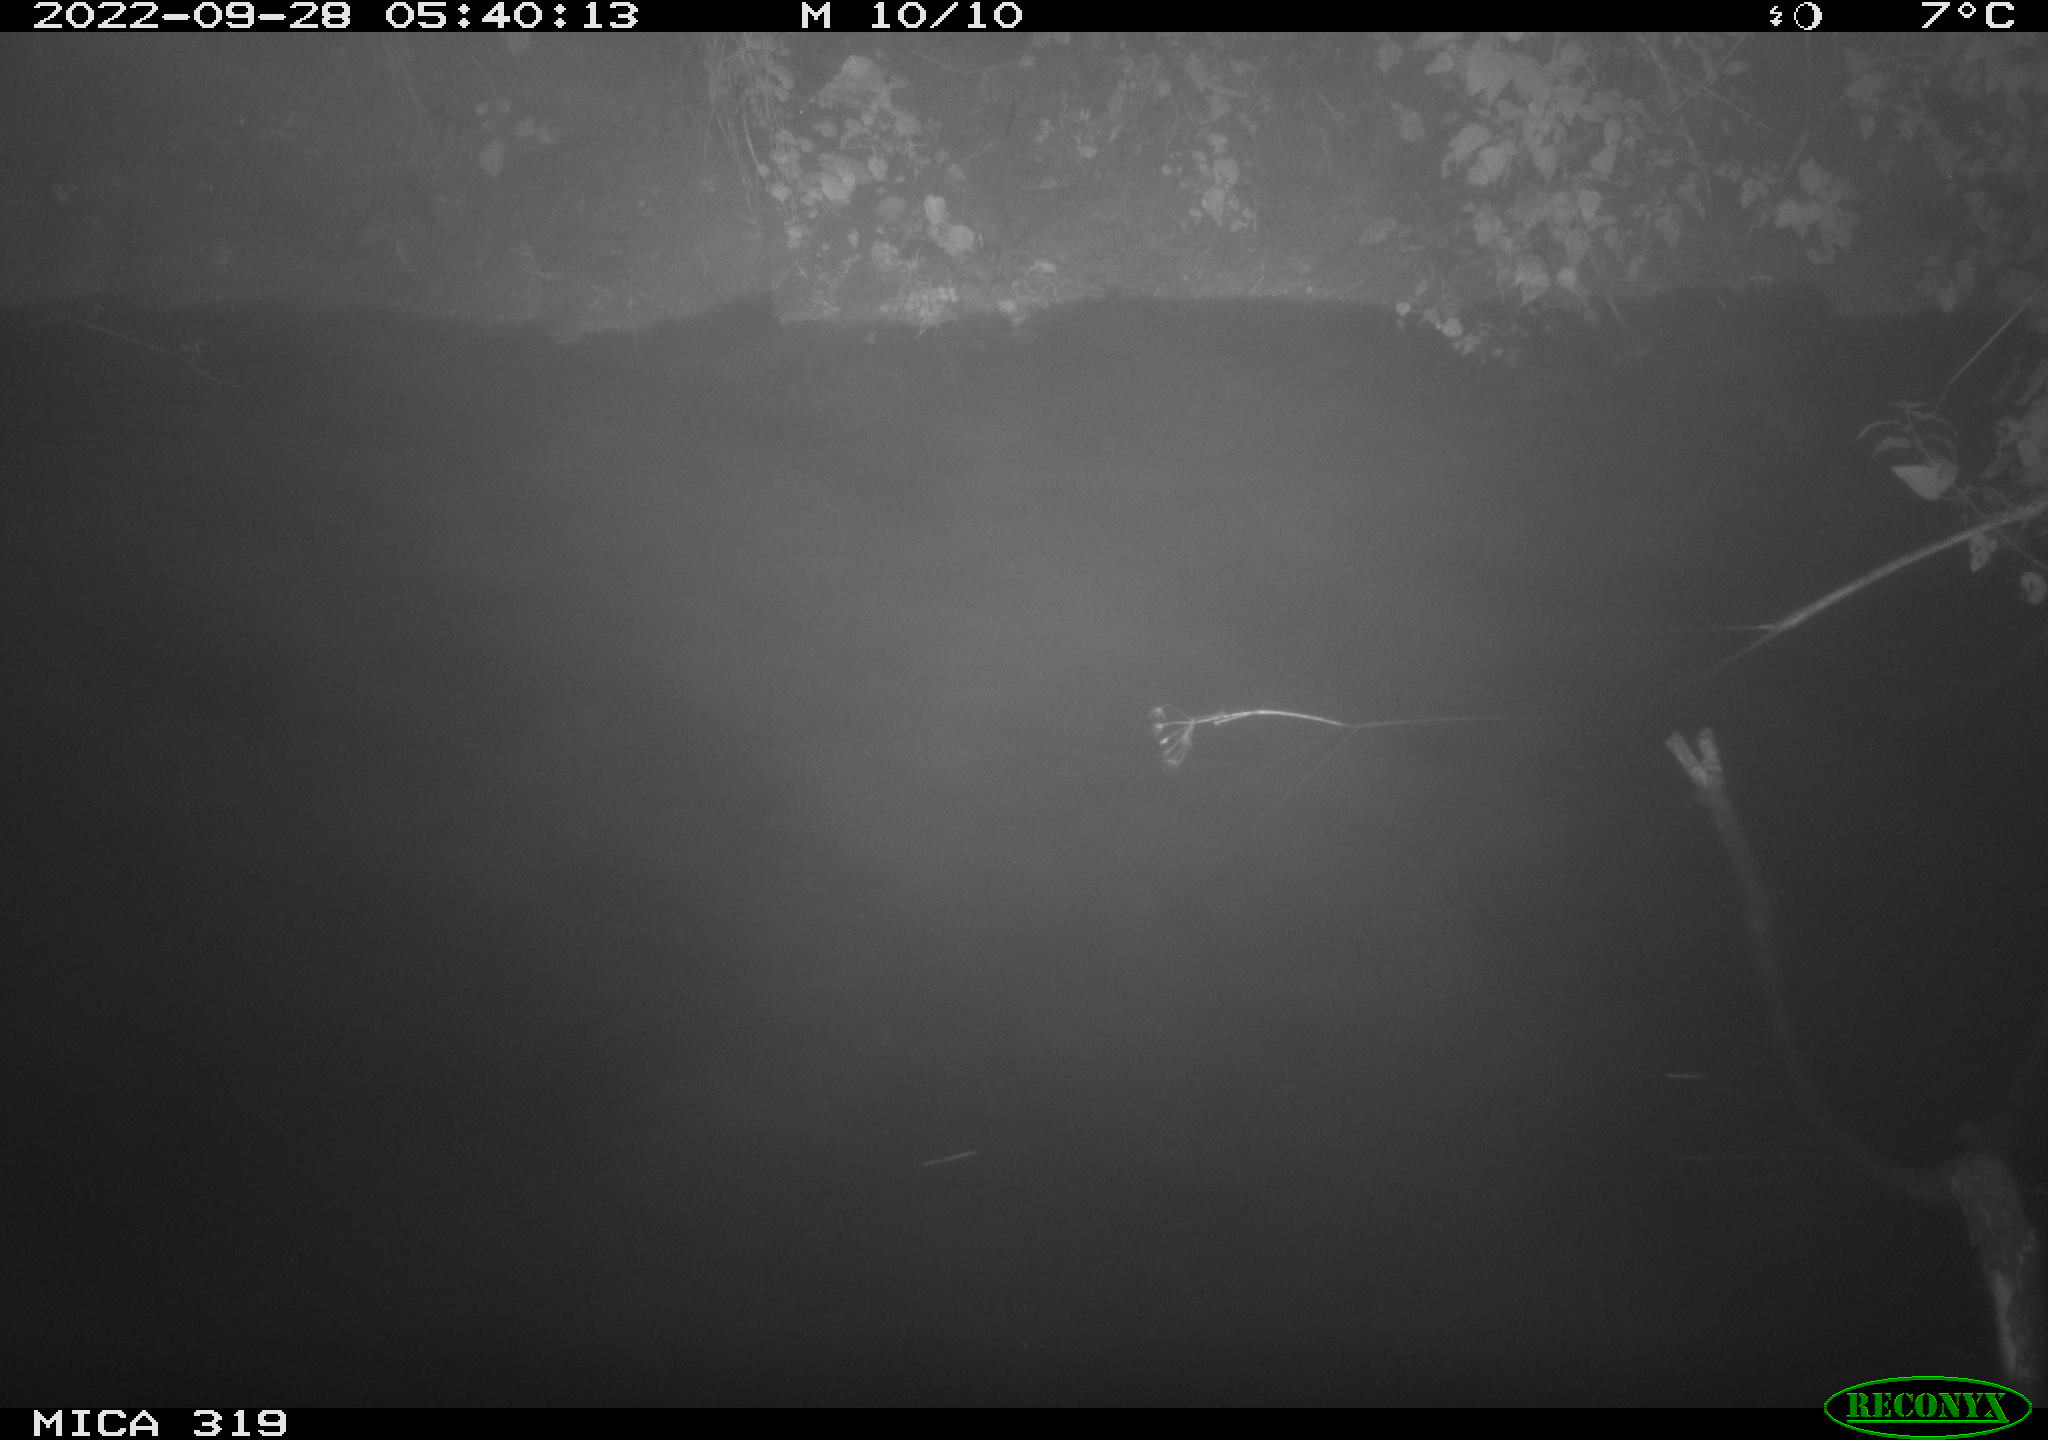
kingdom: Animalia
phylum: Chordata
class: Aves
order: Anseriformes
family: Anatidae
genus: Anas
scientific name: Anas
